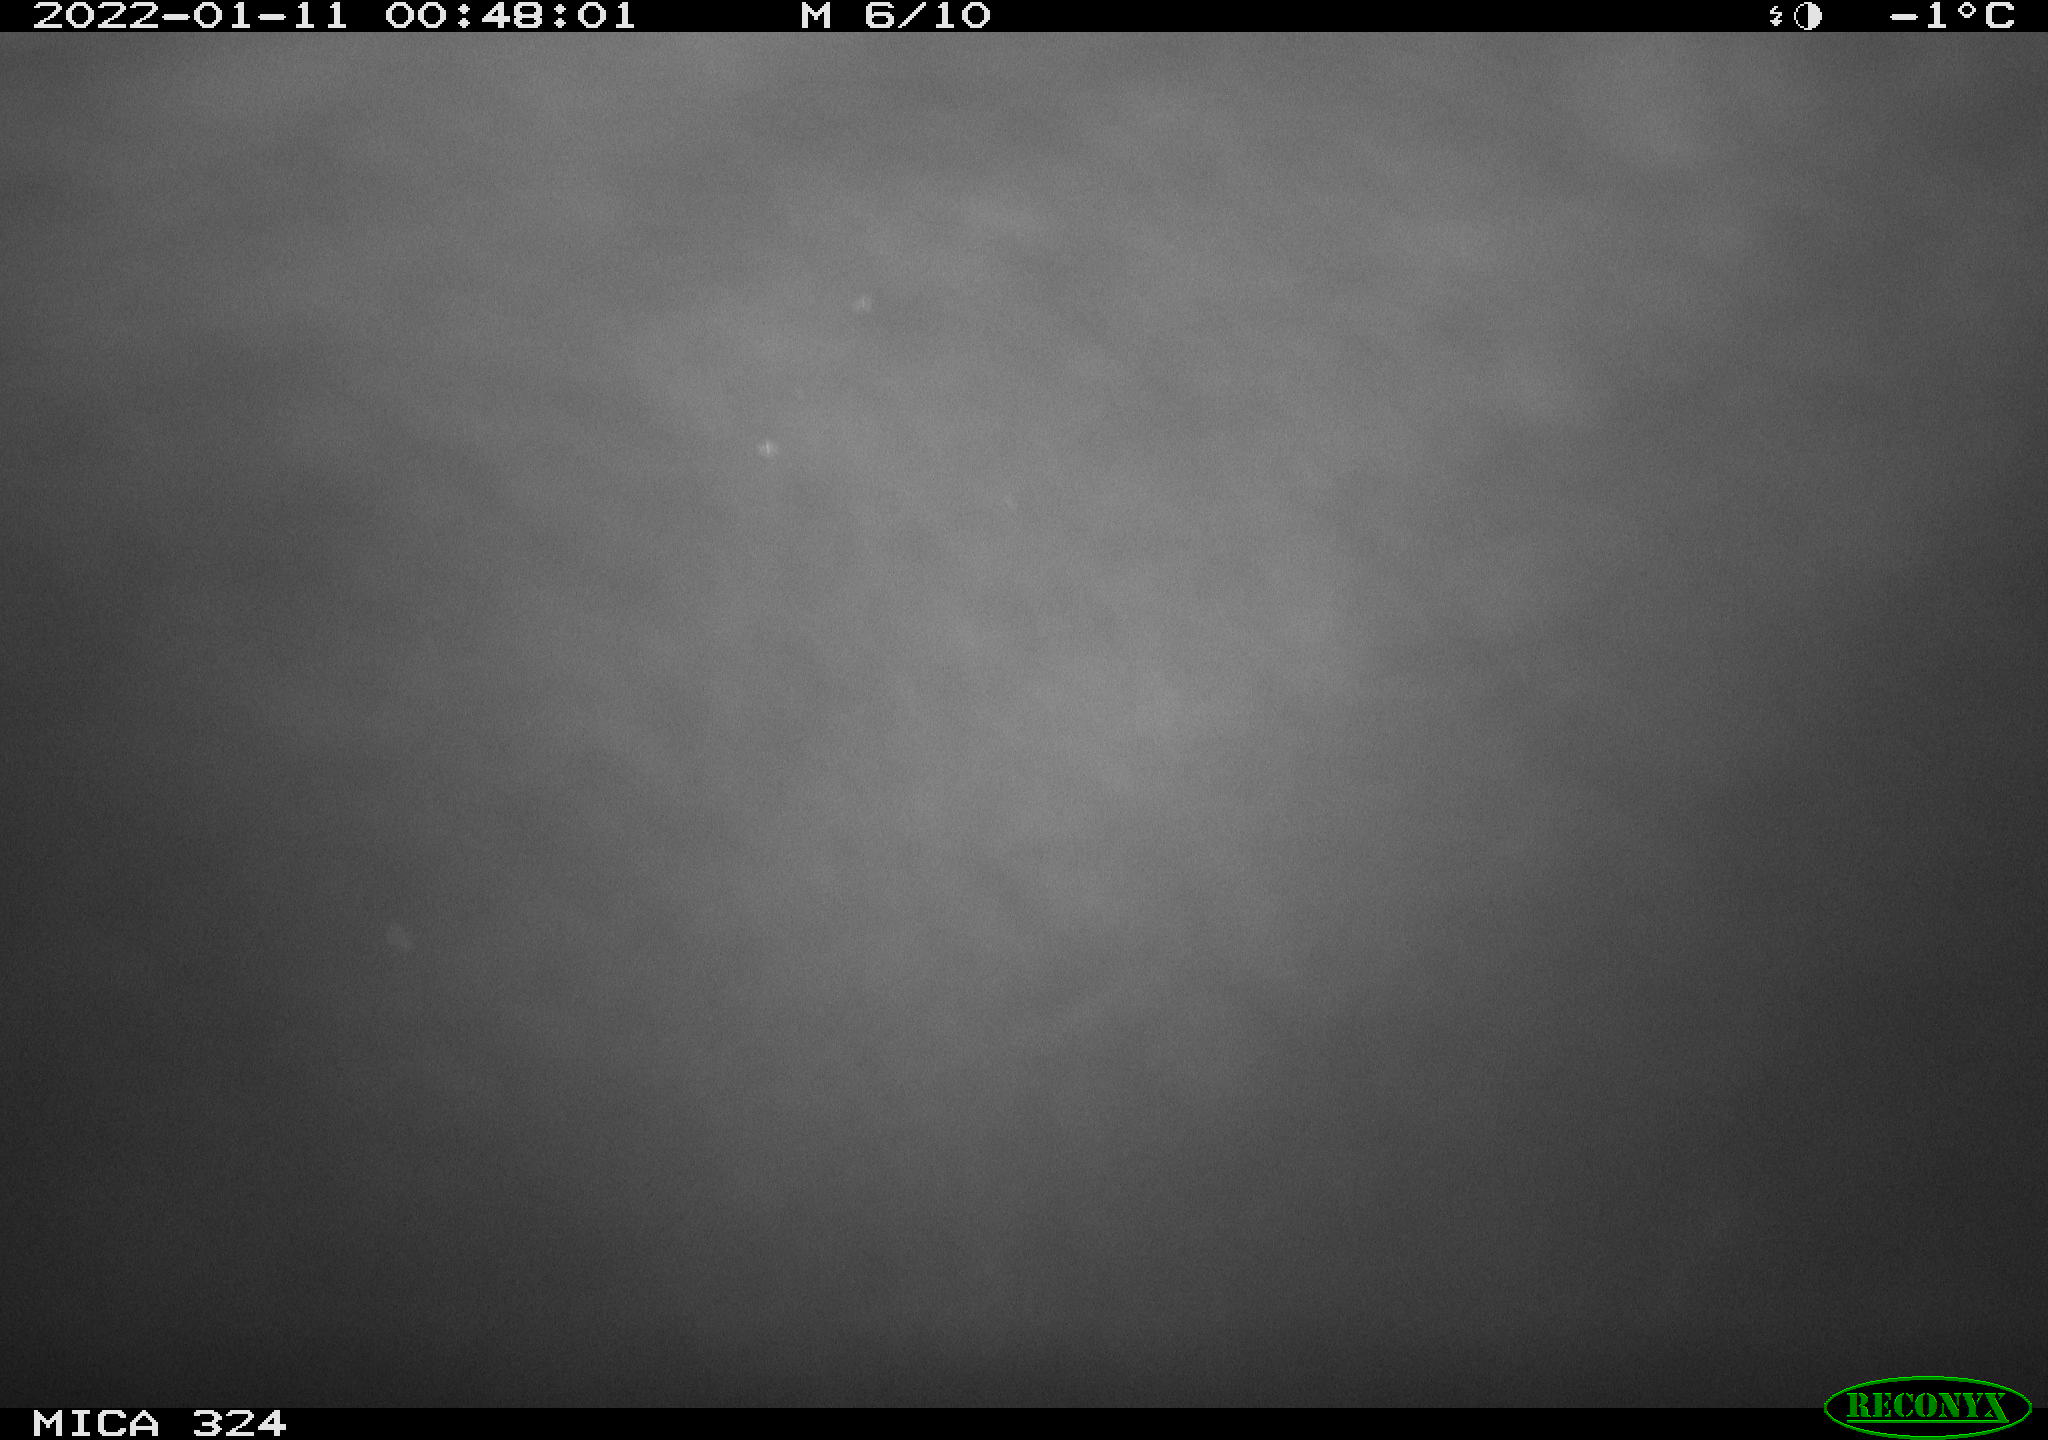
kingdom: Animalia
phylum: Chordata
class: Mammalia
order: Rodentia
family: Cricetidae
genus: Ondatra
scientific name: Ondatra zibethicus
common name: Muskrat
